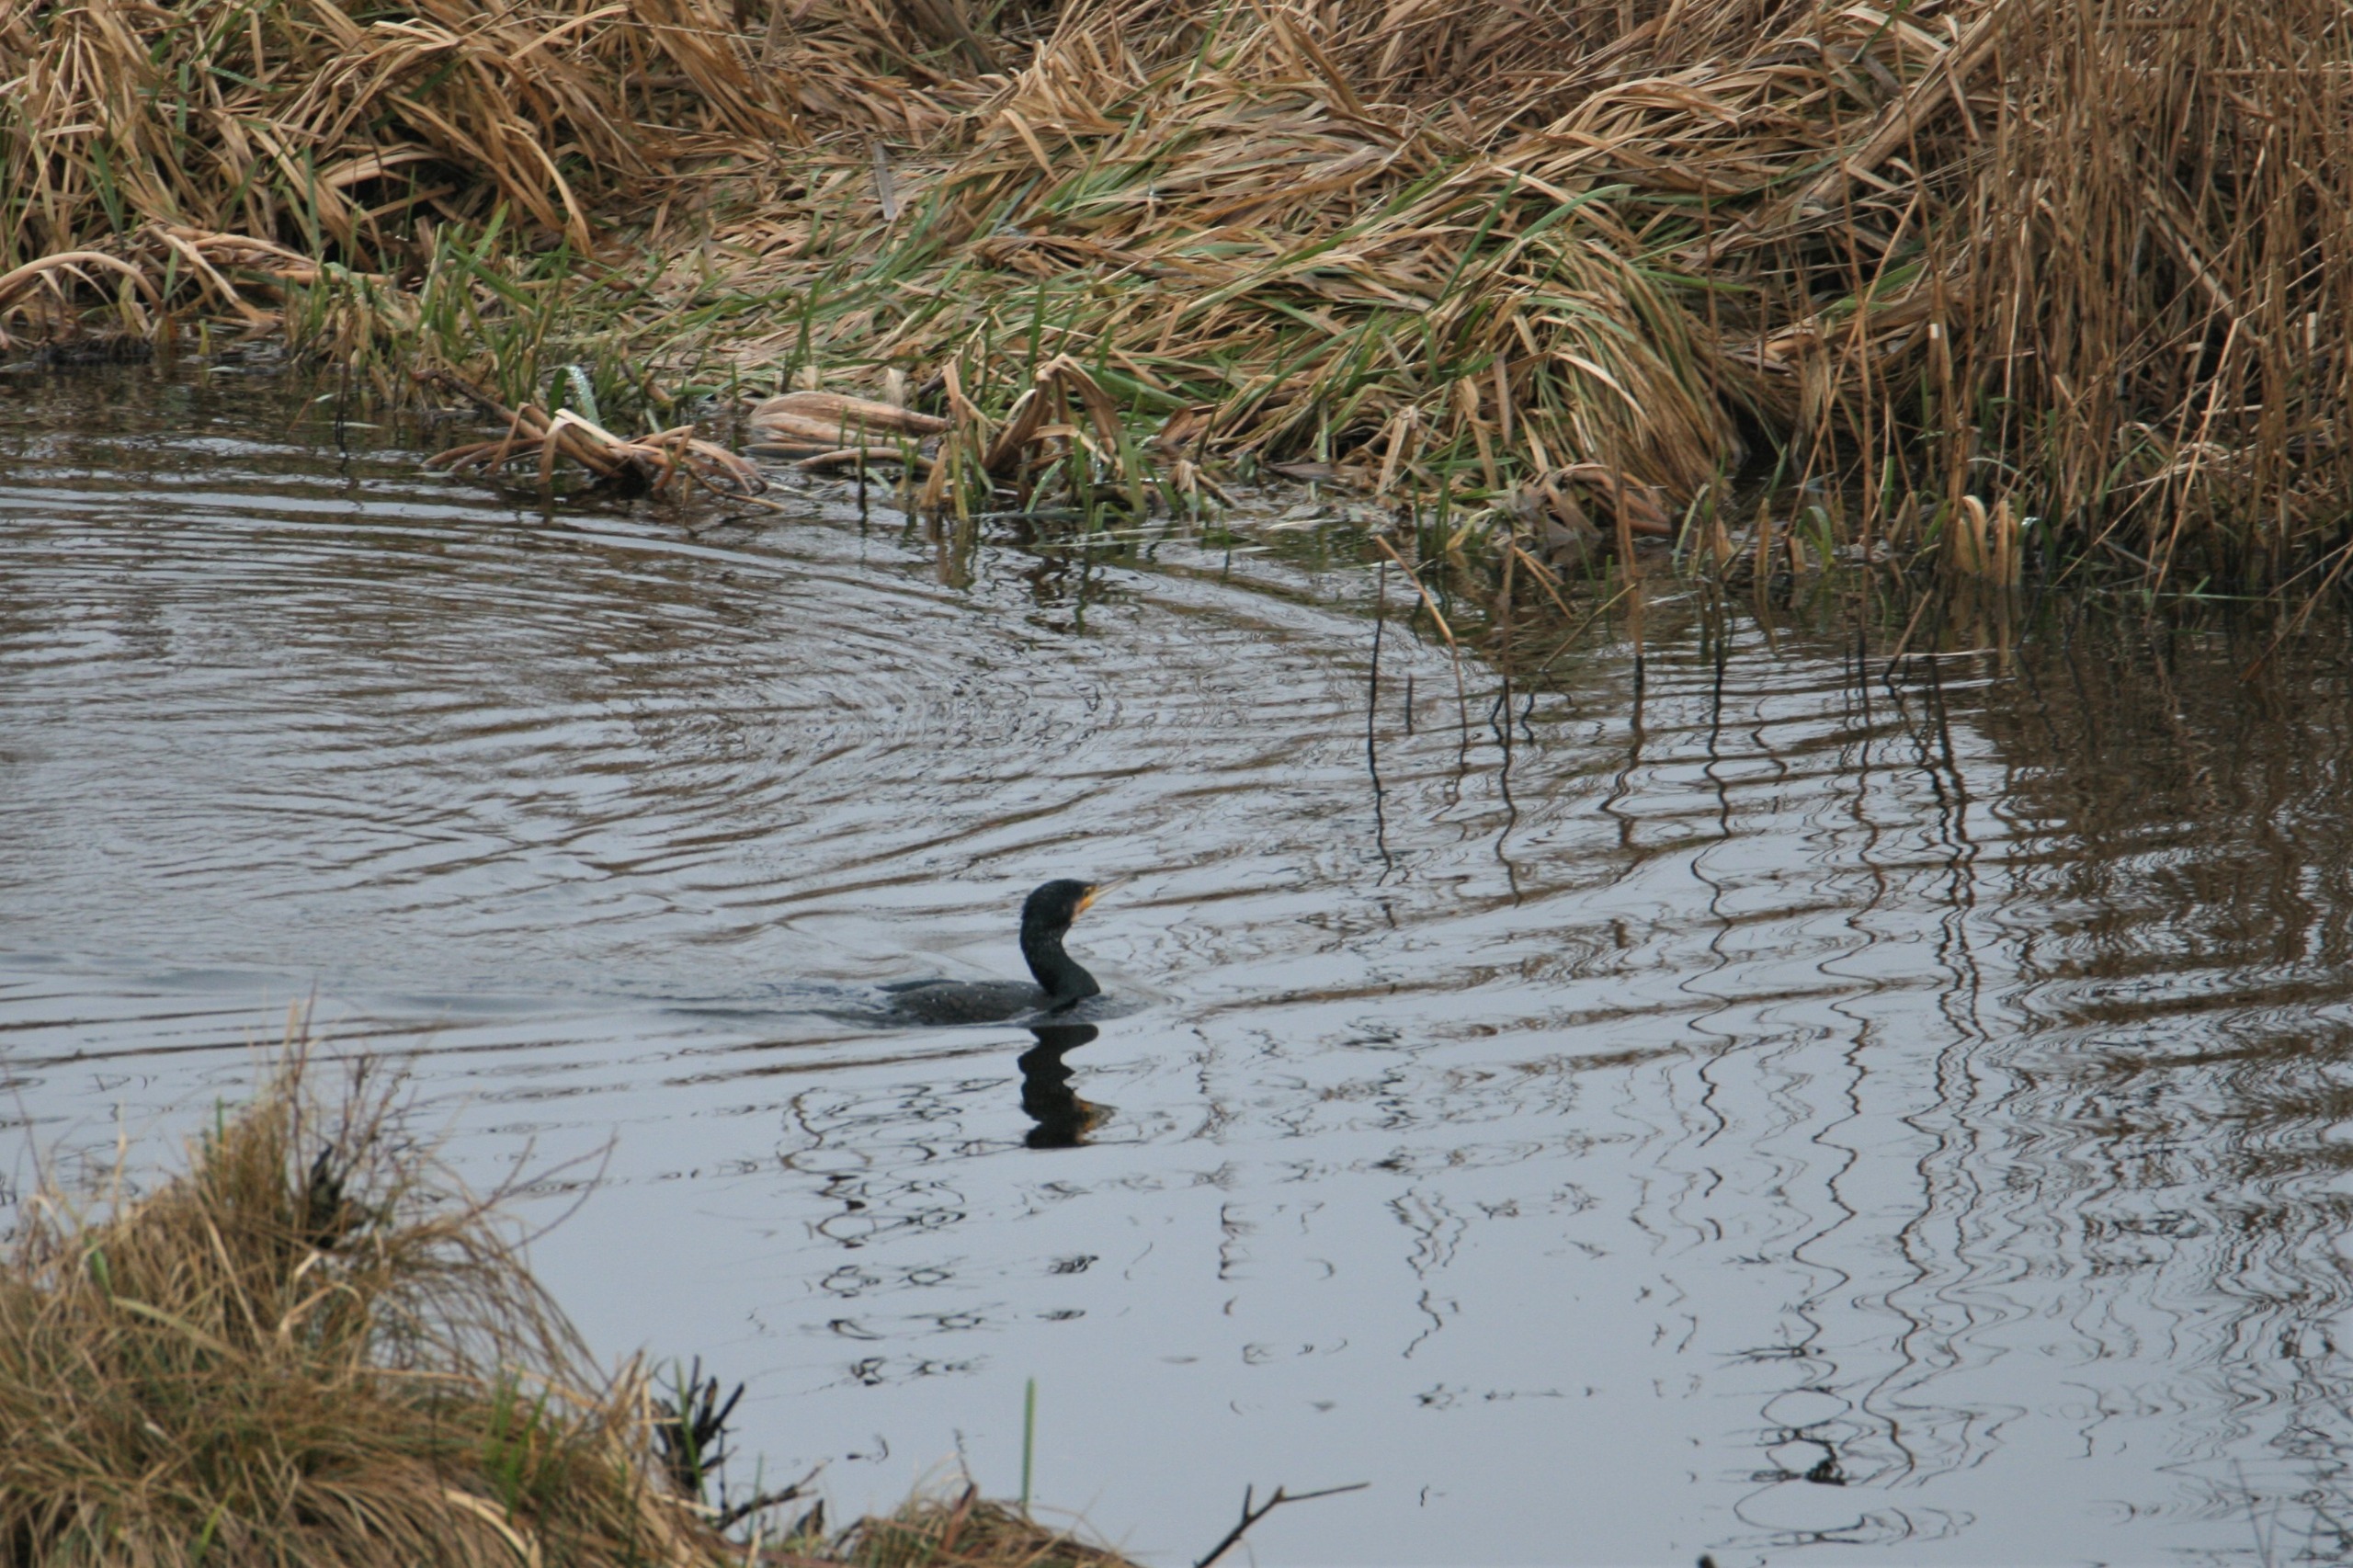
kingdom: Animalia
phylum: Chordata
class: Aves
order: Suliformes
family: Phalacrocoracidae
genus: Phalacrocorax
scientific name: Phalacrocorax carbo
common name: Skarv
